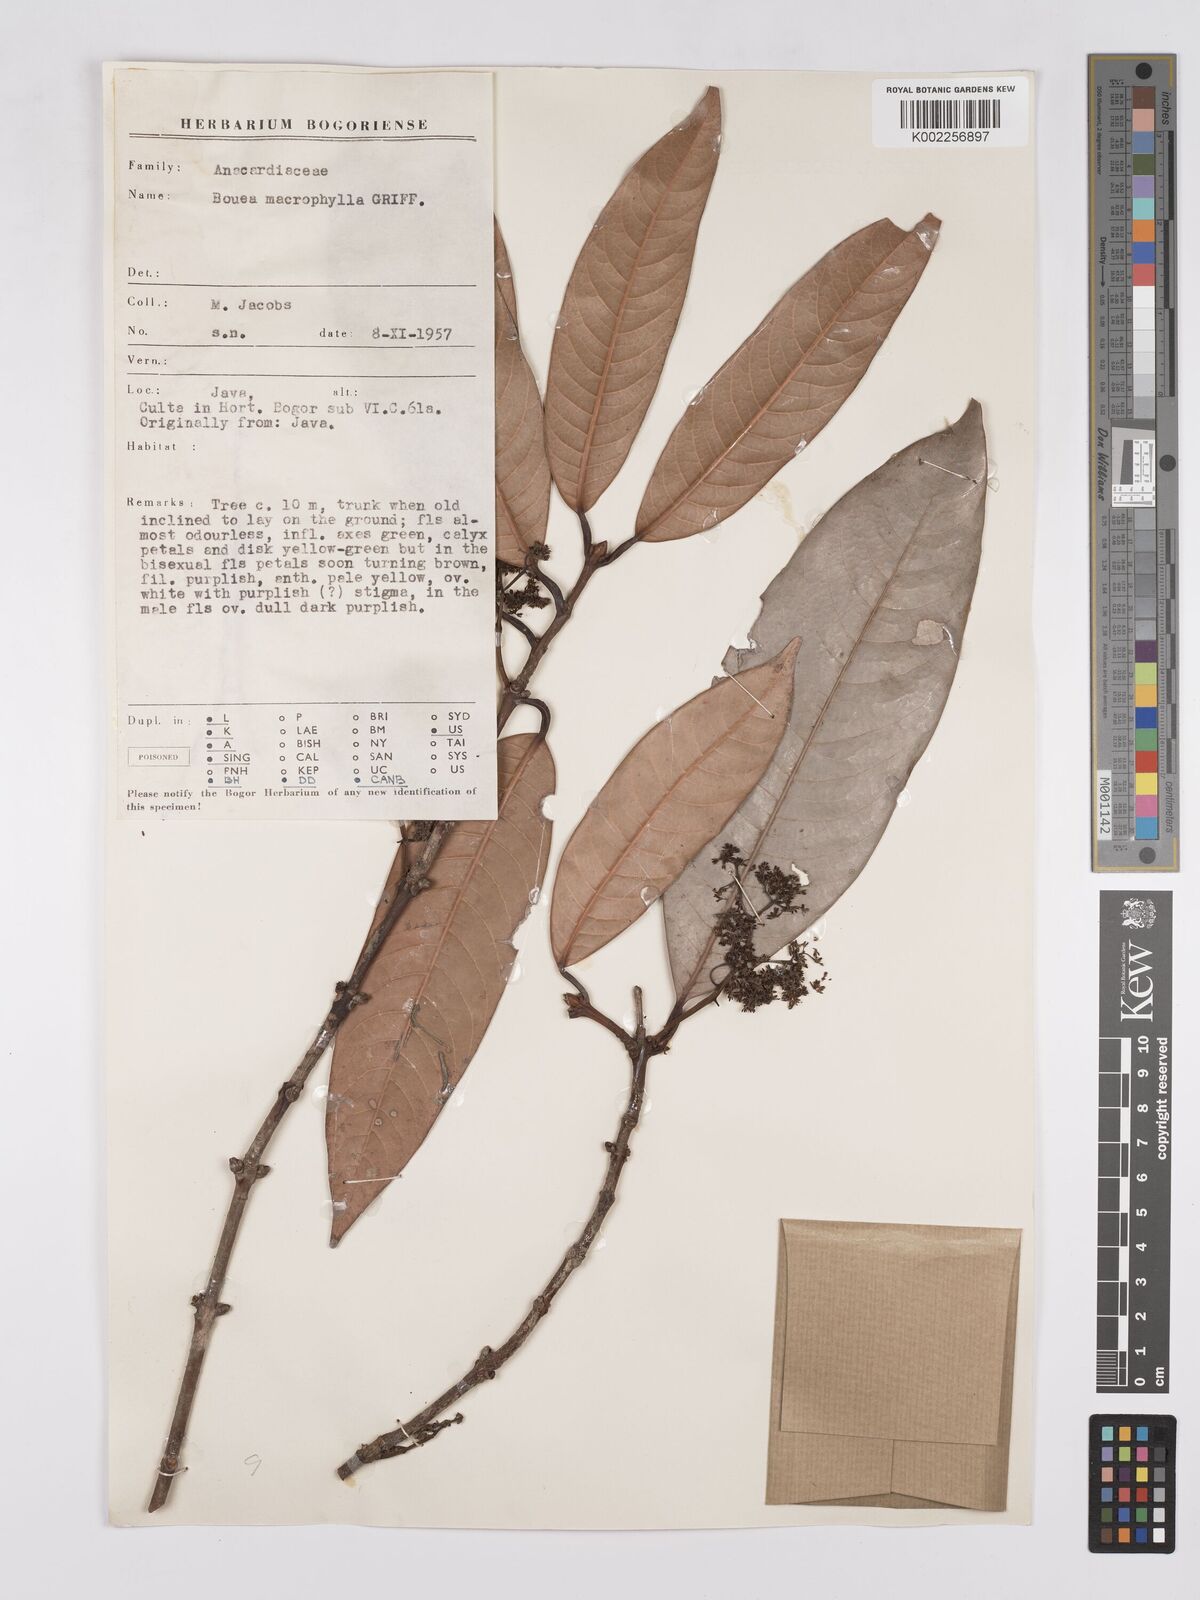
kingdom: Plantae
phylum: Tracheophyta
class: Magnoliopsida
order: Sapindales
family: Anacardiaceae
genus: Bouea
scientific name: Bouea macrophylla
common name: Gandaria
